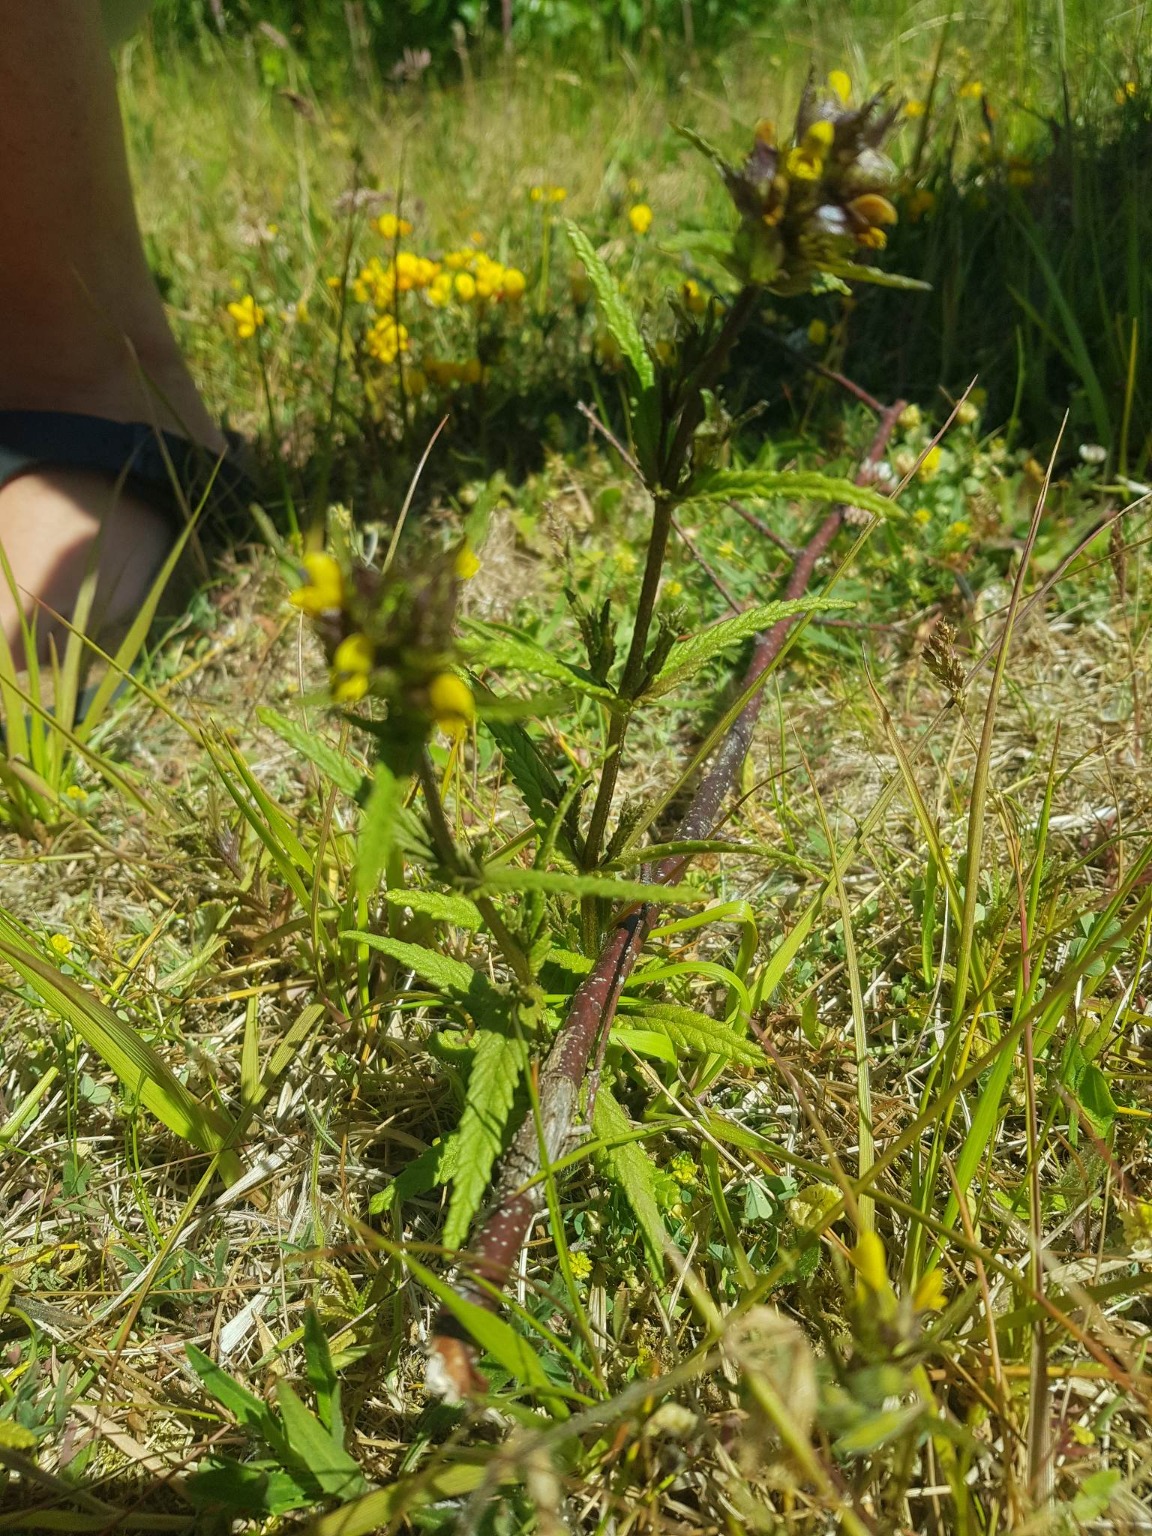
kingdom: Plantae
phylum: Tracheophyta
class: Magnoliopsida
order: Lamiales
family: Orobanchaceae
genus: Rhinanthus
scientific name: Rhinanthus minor
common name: Liden skjaller
